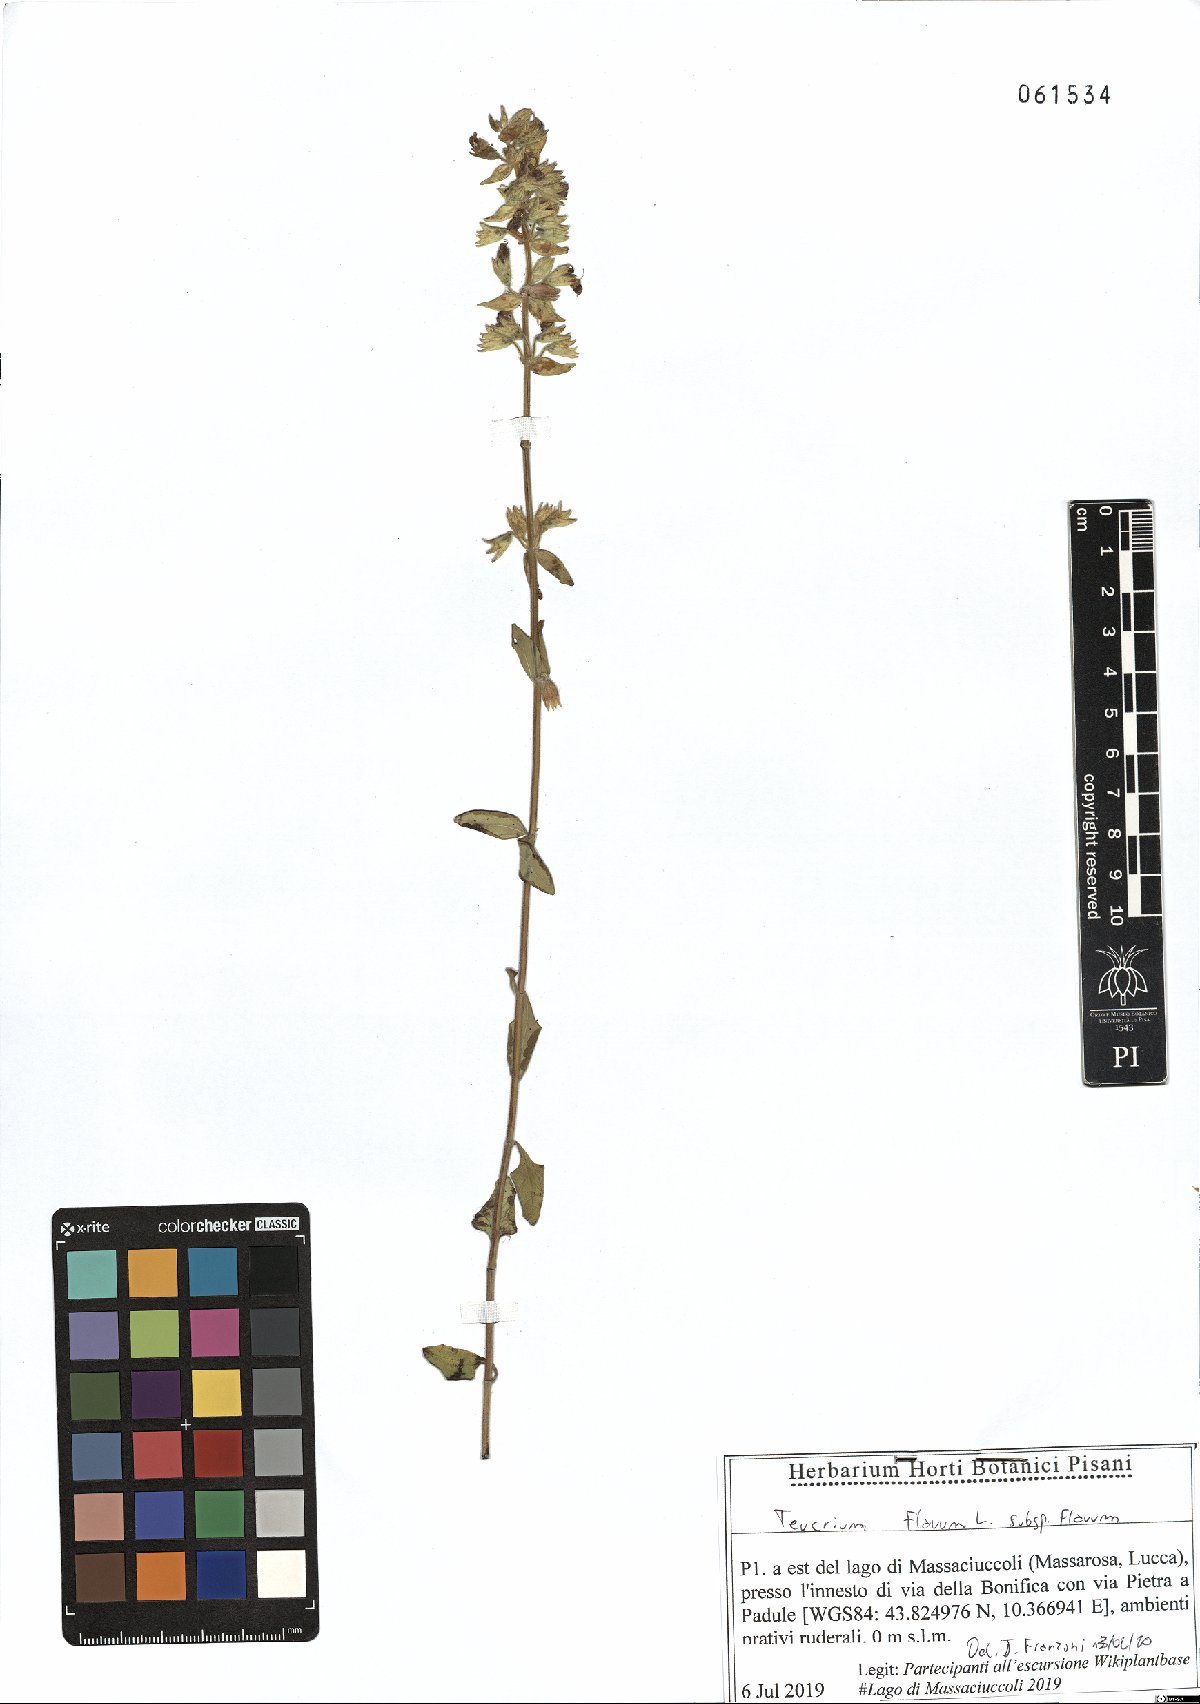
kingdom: Plantae
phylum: Tracheophyta
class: Magnoliopsida
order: Lamiales
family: Lamiaceae
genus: Teucrium
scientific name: Teucrium flavum
